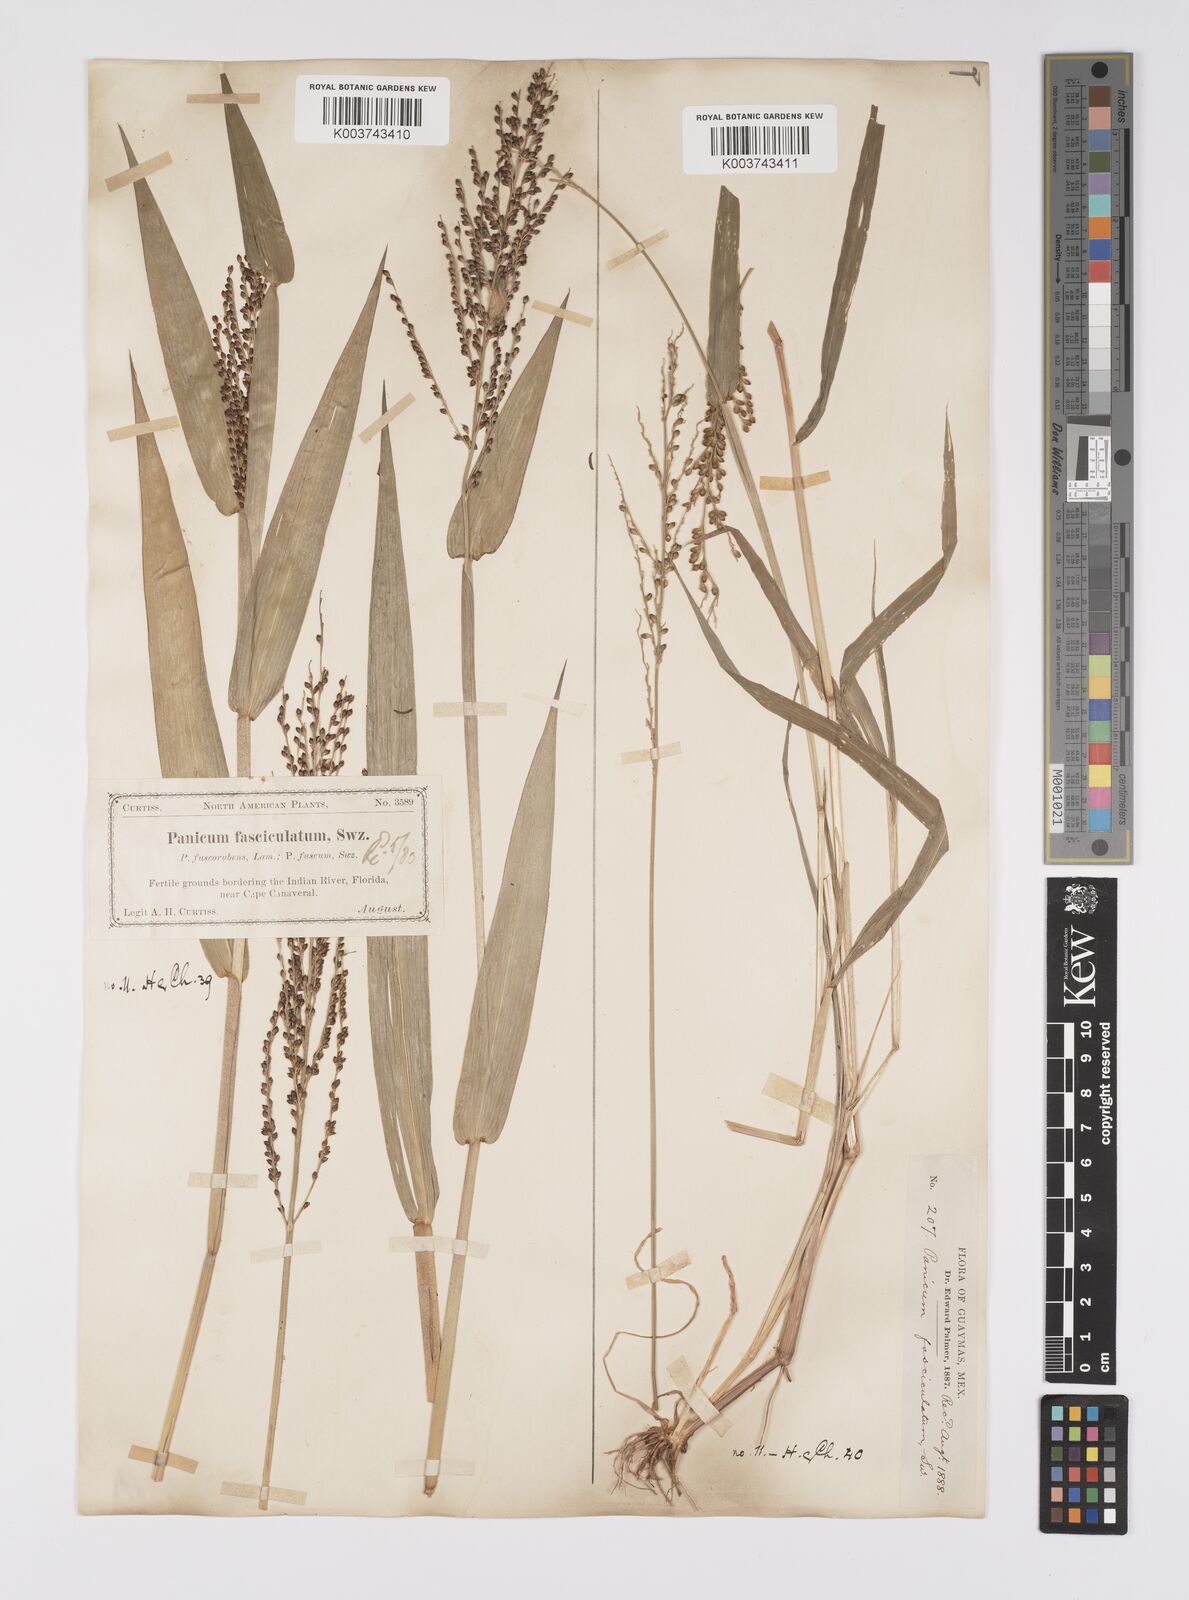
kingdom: Plantae
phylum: Tracheophyta
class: Liliopsida
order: Poales
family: Poaceae
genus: Urochloa
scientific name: Urochloa fusca
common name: Browntop signal grass
